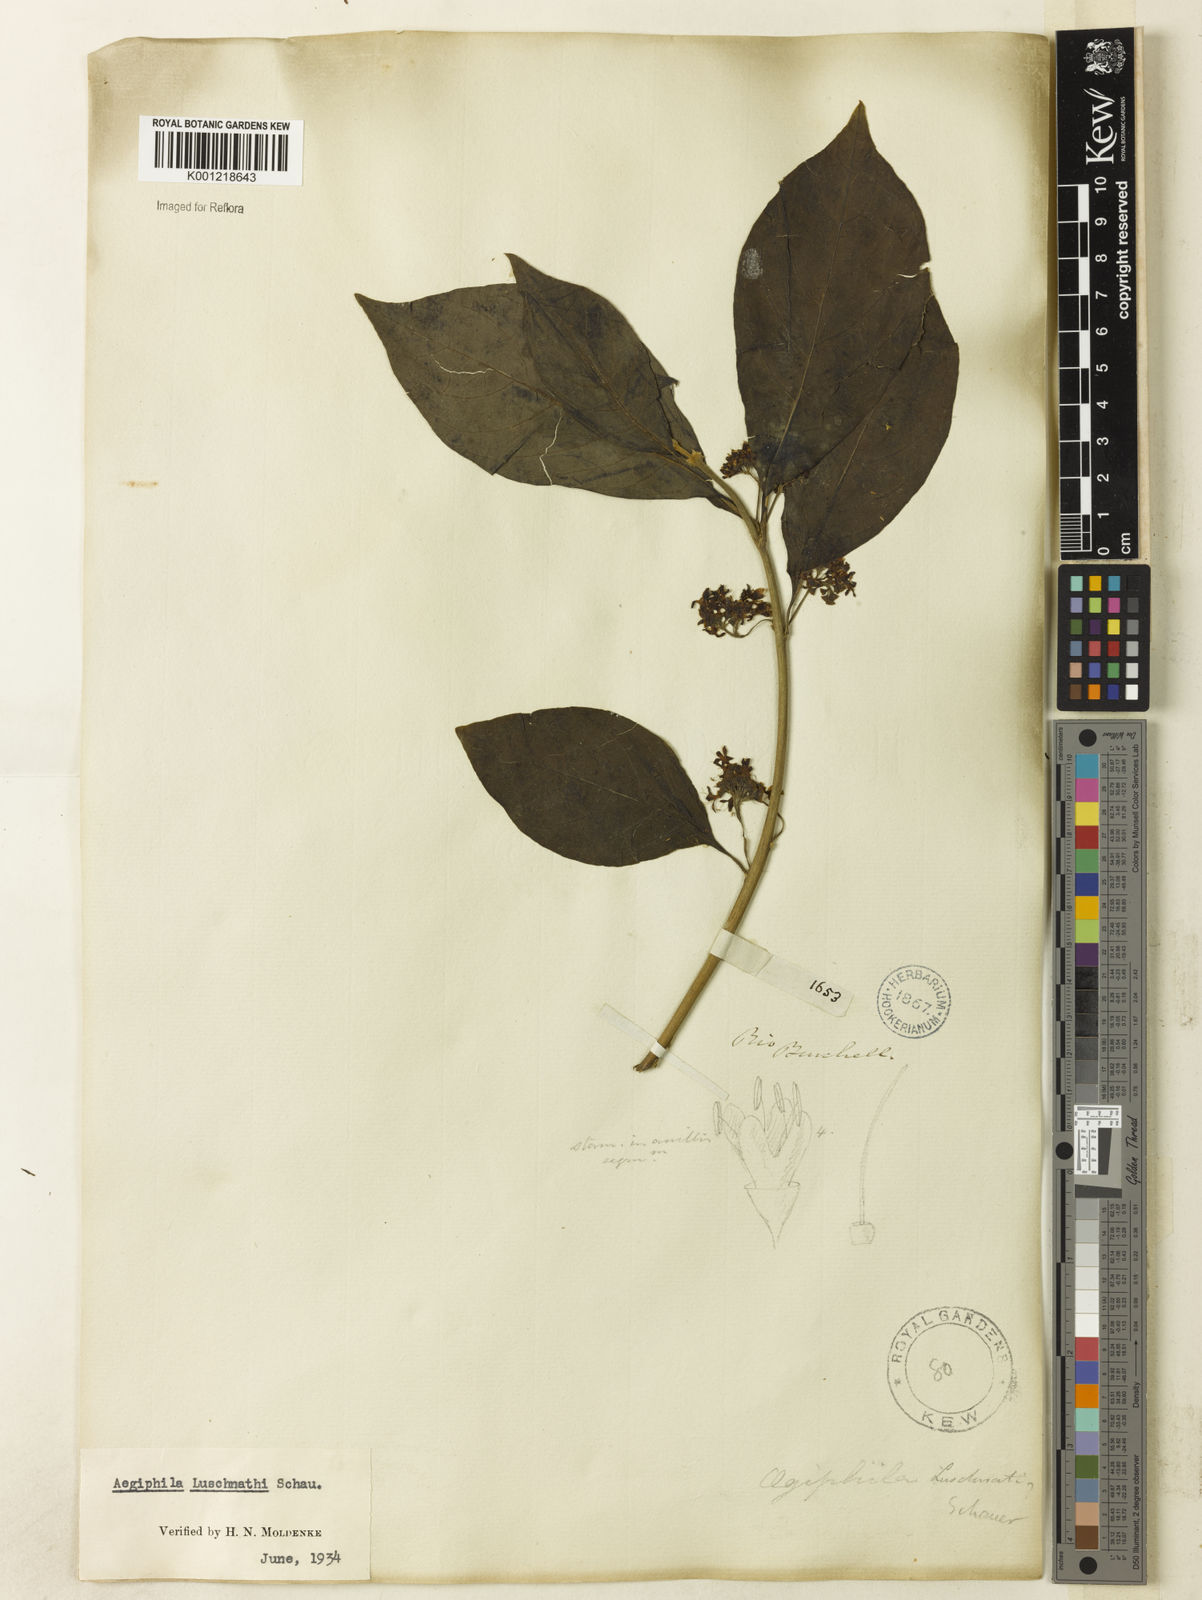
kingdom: Plantae
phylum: Tracheophyta
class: Magnoliopsida
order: Lamiales
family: Lamiaceae
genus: Aegiphila
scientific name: Aegiphila luschnathii
